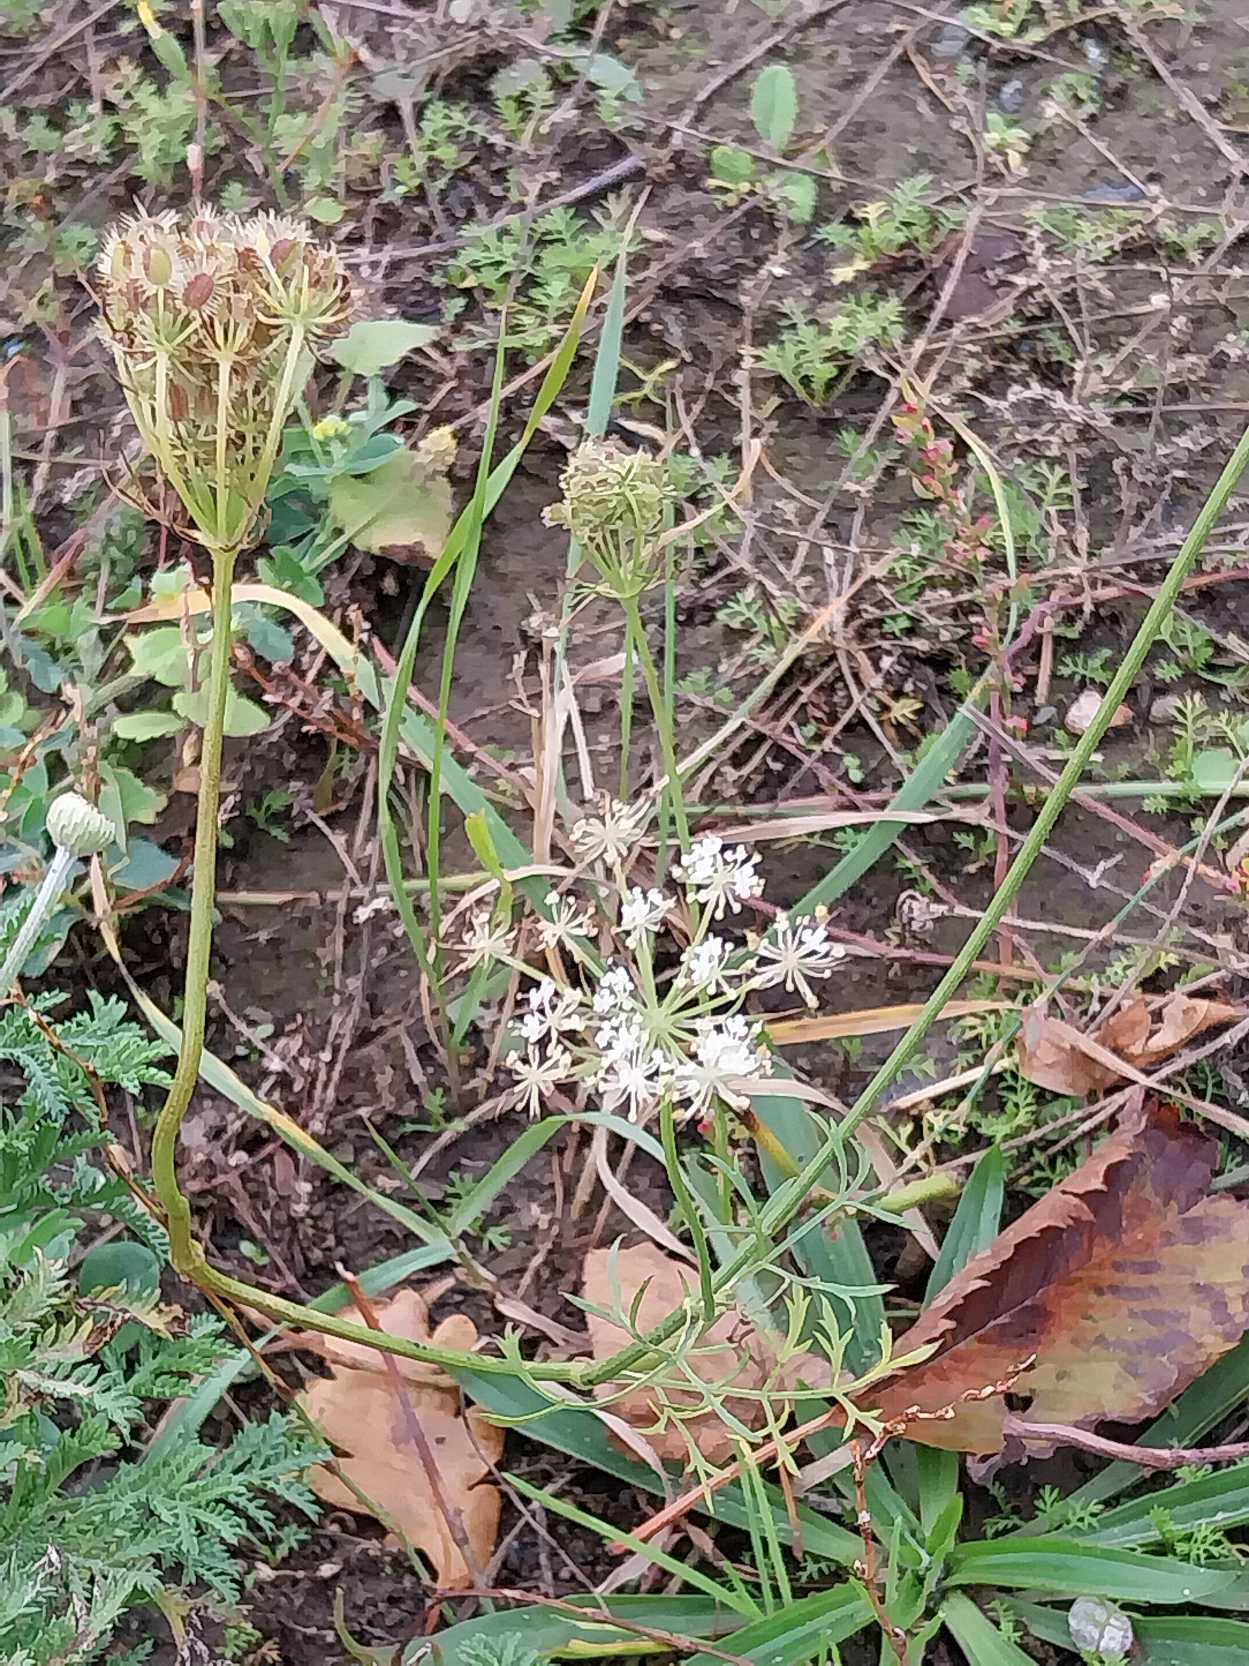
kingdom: Plantae
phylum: Tracheophyta
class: Magnoliopsida
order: Apiales
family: Apiaceae
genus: Daucus
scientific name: Daucus carota
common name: Gulerod
